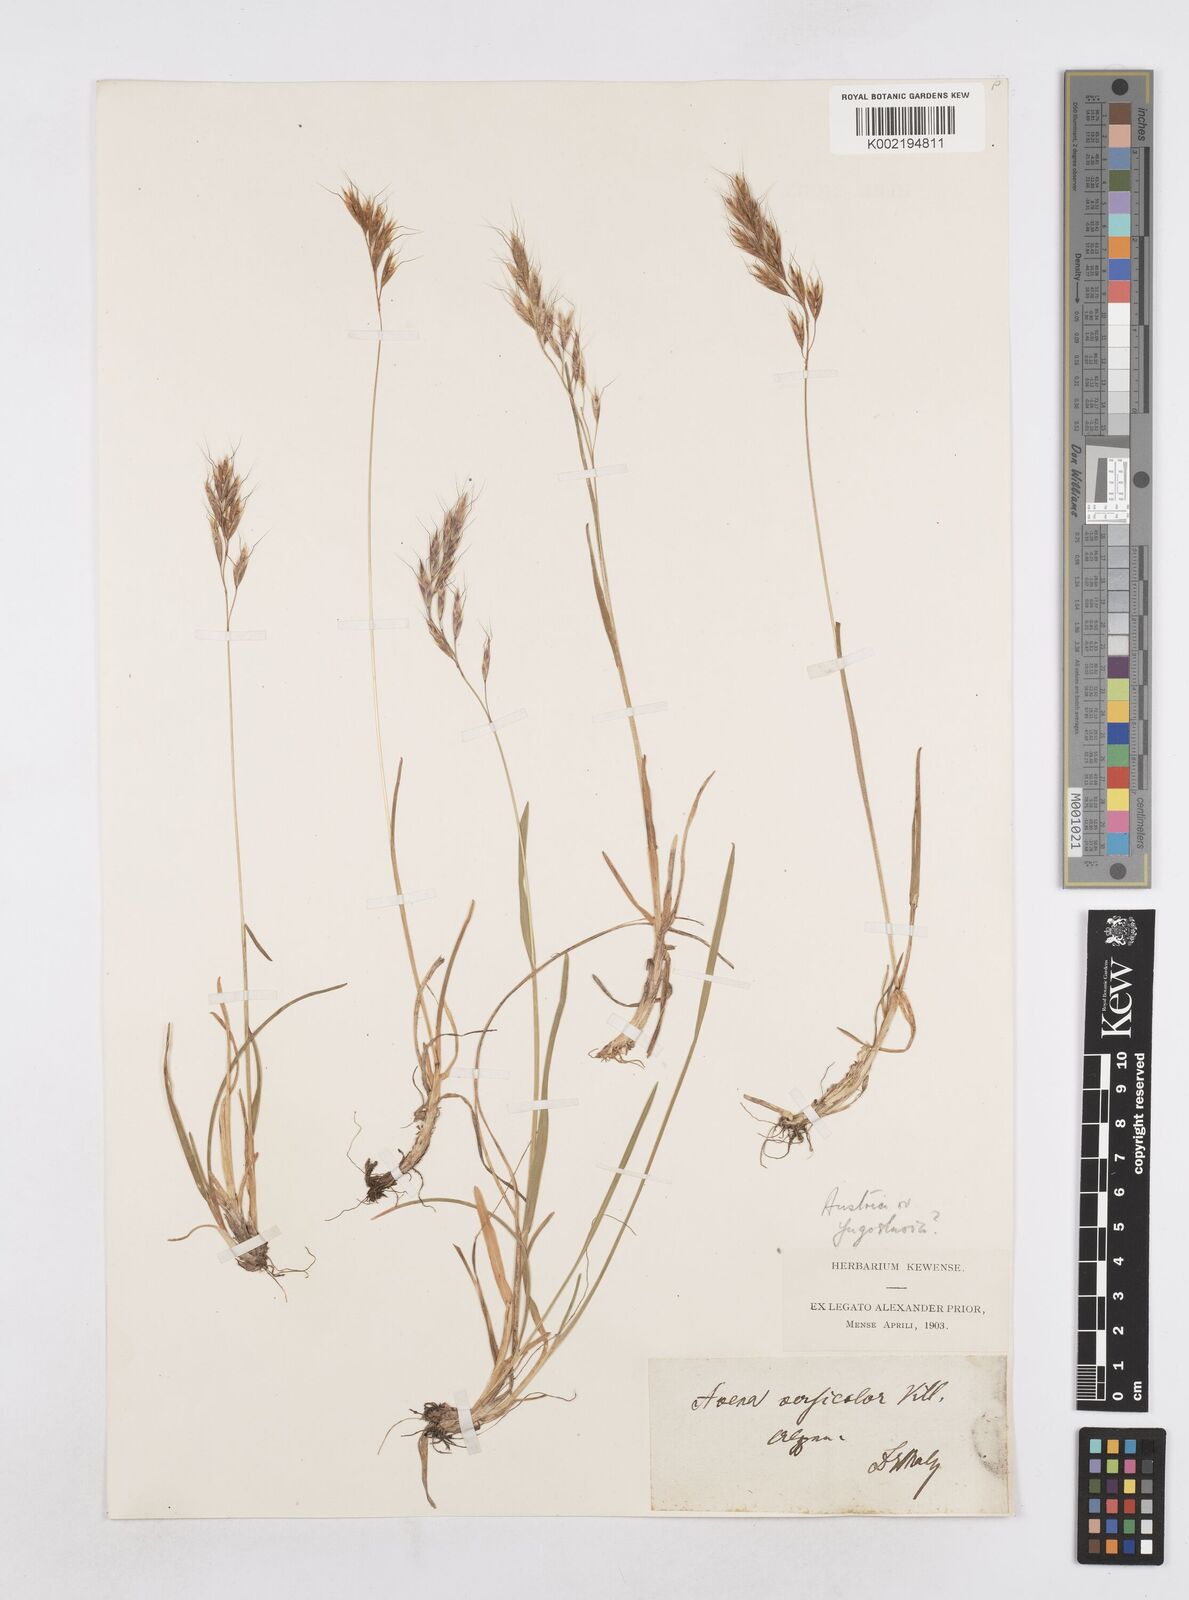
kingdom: Plantae
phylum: Tracheophyta
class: Liliopsida
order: Poales
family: Poaceae
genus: Helictochloa
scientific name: Helictochloa versicolor
